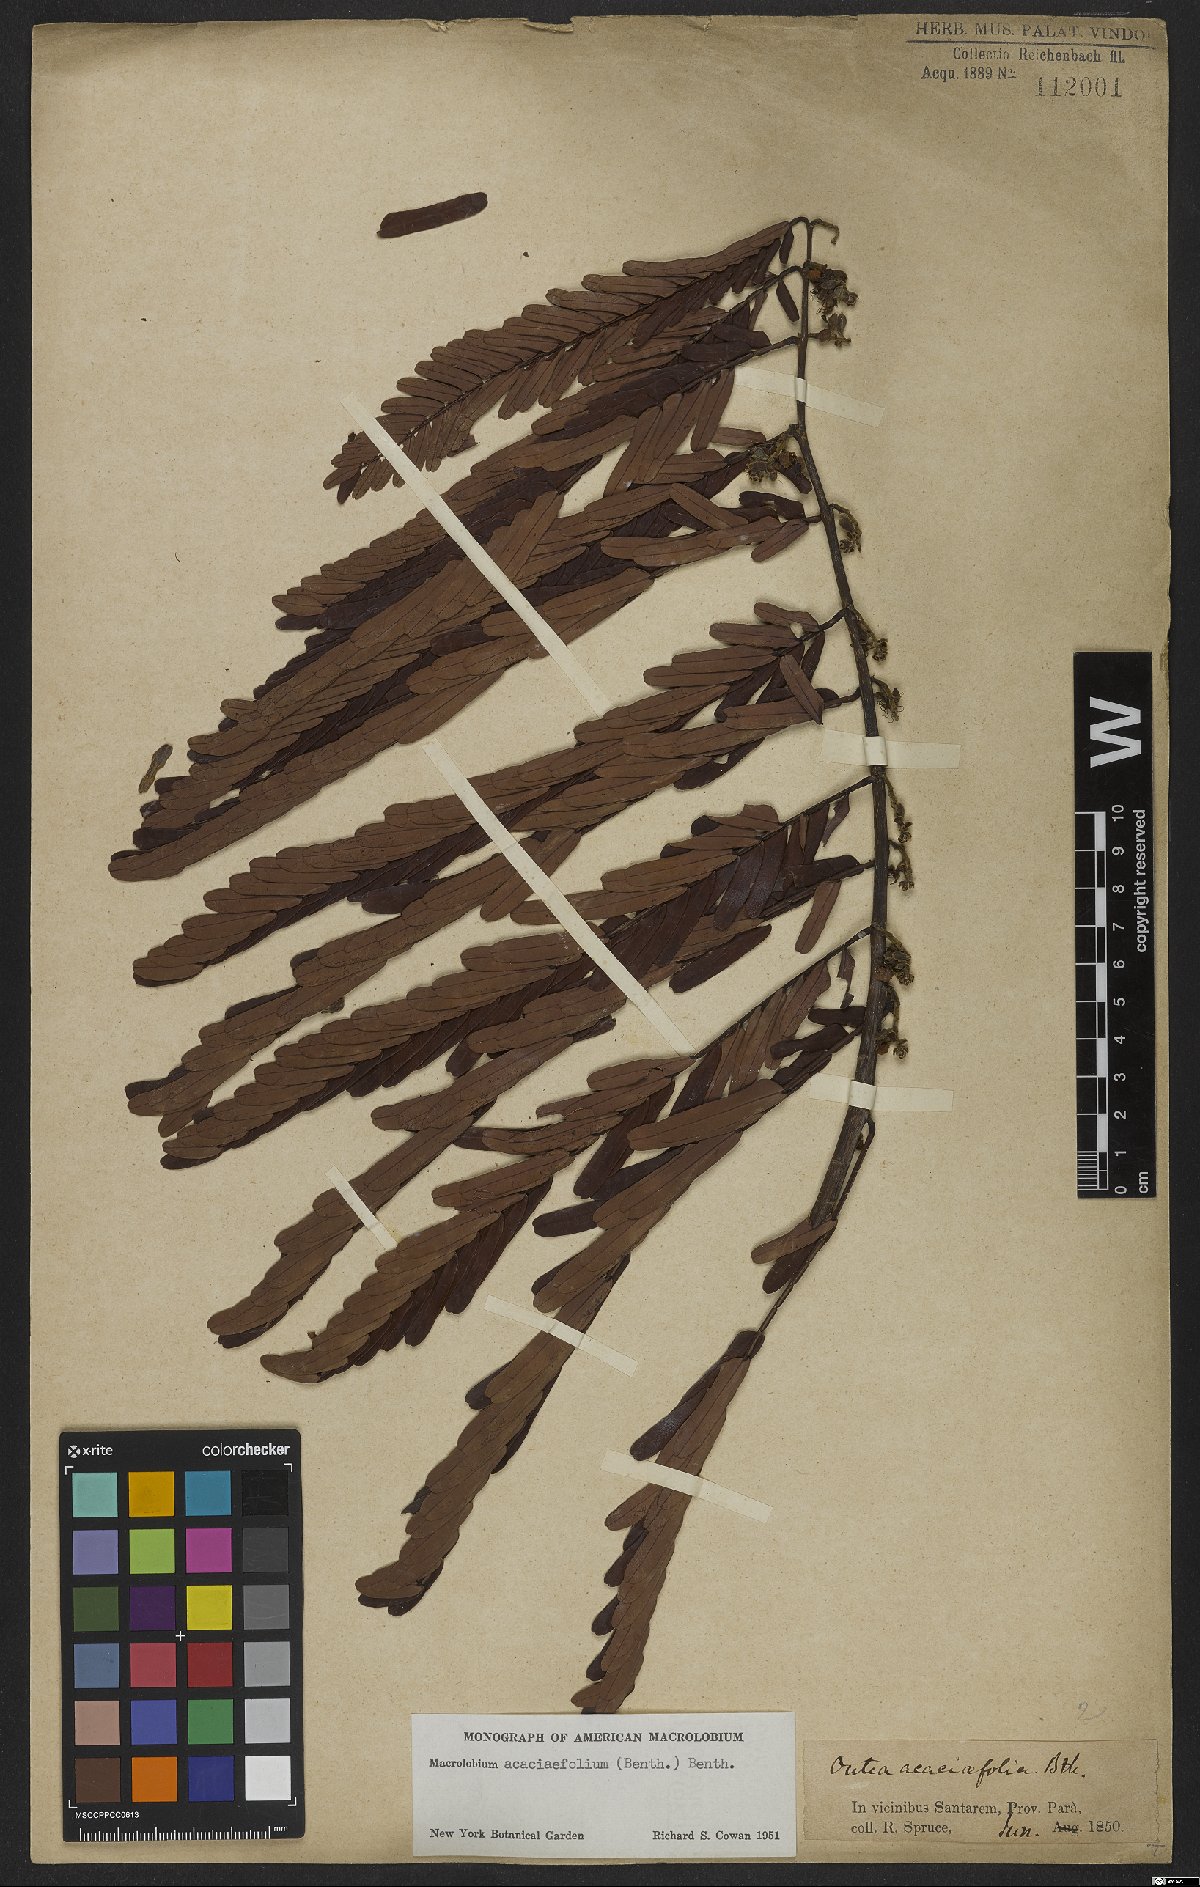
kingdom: Plantae
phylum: Tracheophyta
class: Magnoliopsida
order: Fabales
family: Fabaceae
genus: Macrolobium
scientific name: Macrolobium acaciifolium
